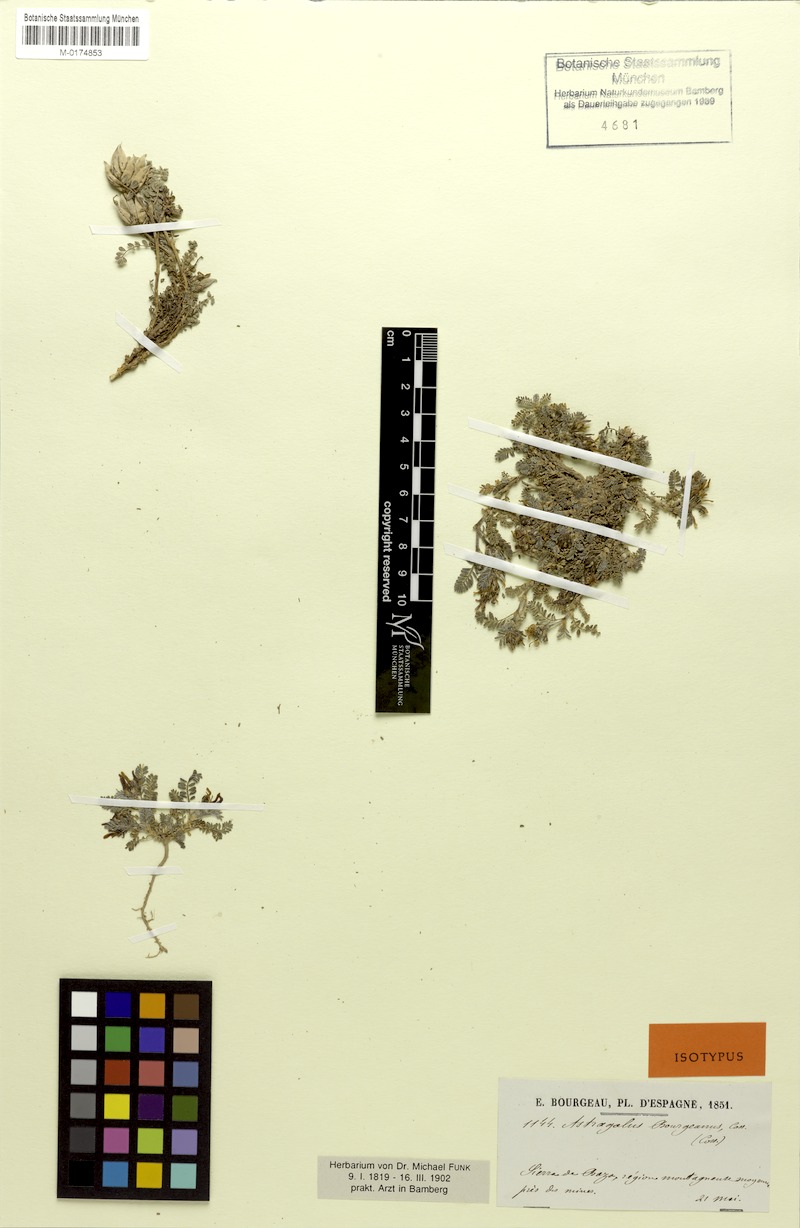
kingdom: Plantae
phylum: Tracheophyta
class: Magnoliopsida
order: Fabales
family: Fabaceae
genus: Astragalus
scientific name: Astragalus bourgaeanus
